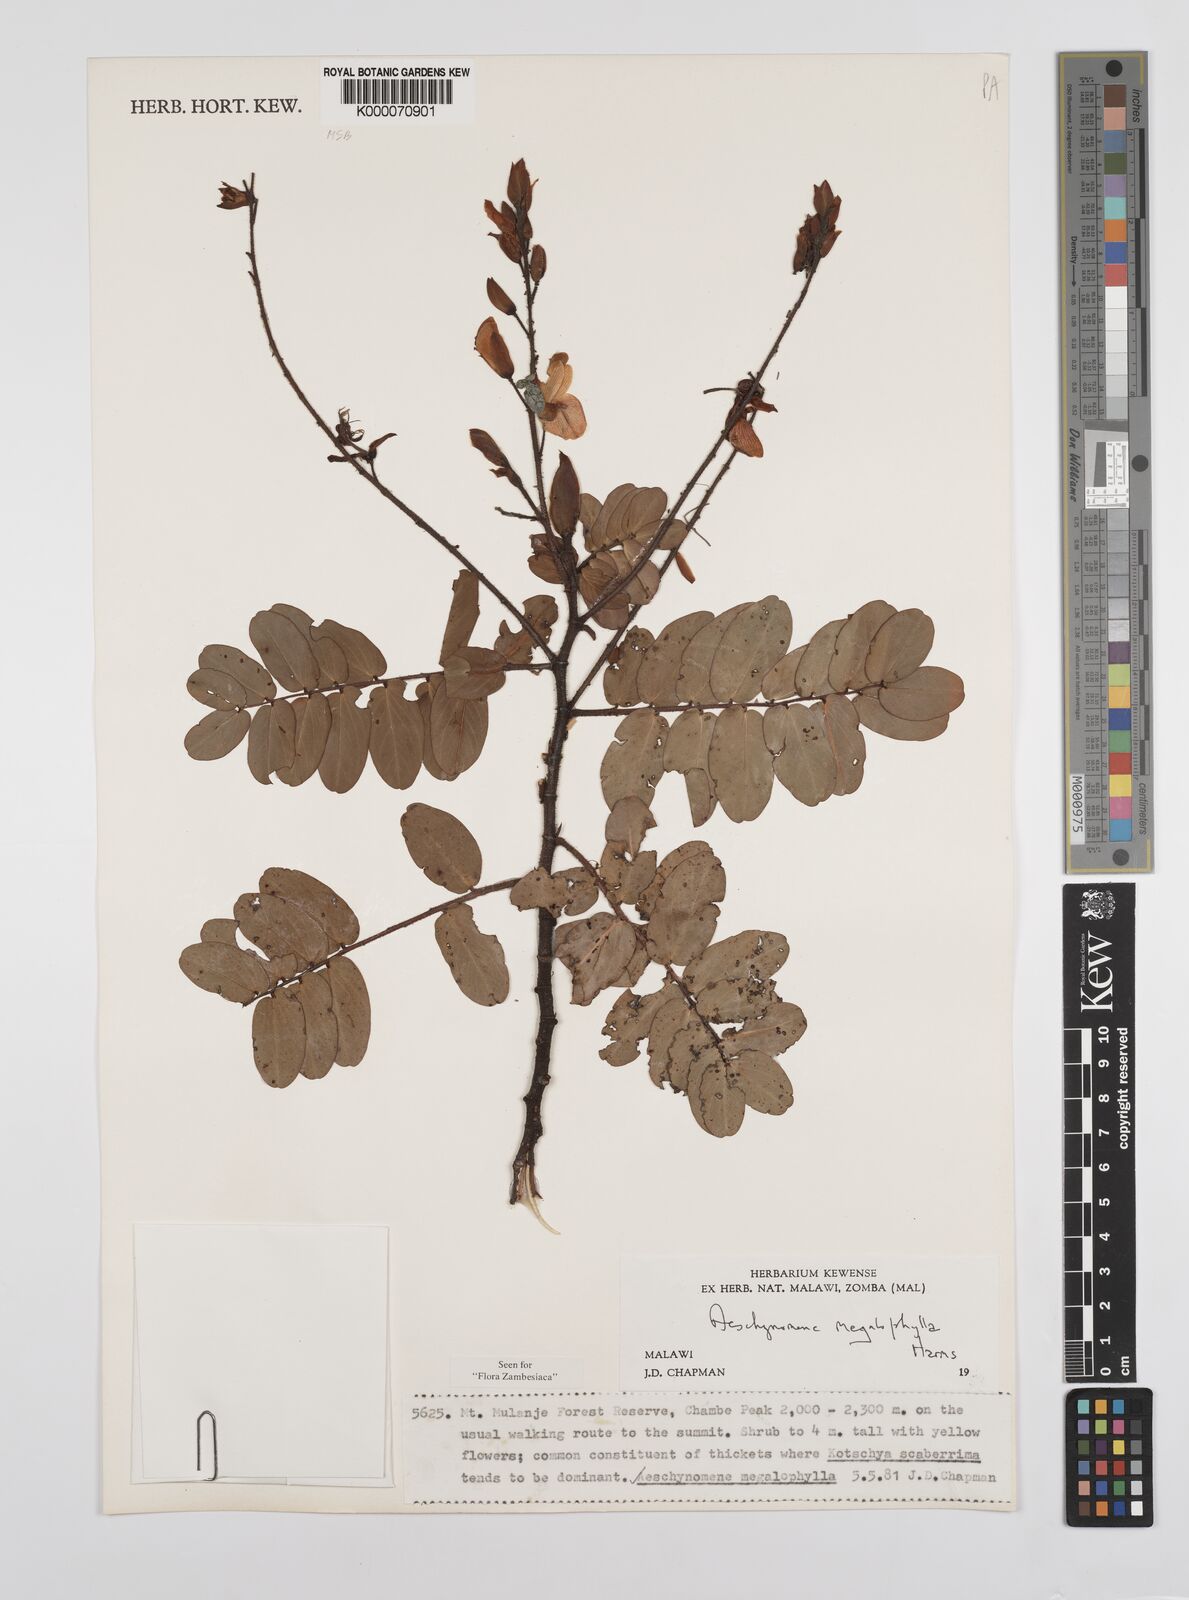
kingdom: Plantae
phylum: Tracheophyta
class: Magnoliopsida
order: Fabales
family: Fabaceae
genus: Aeschynomene
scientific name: Aeschynomene megalophylla
